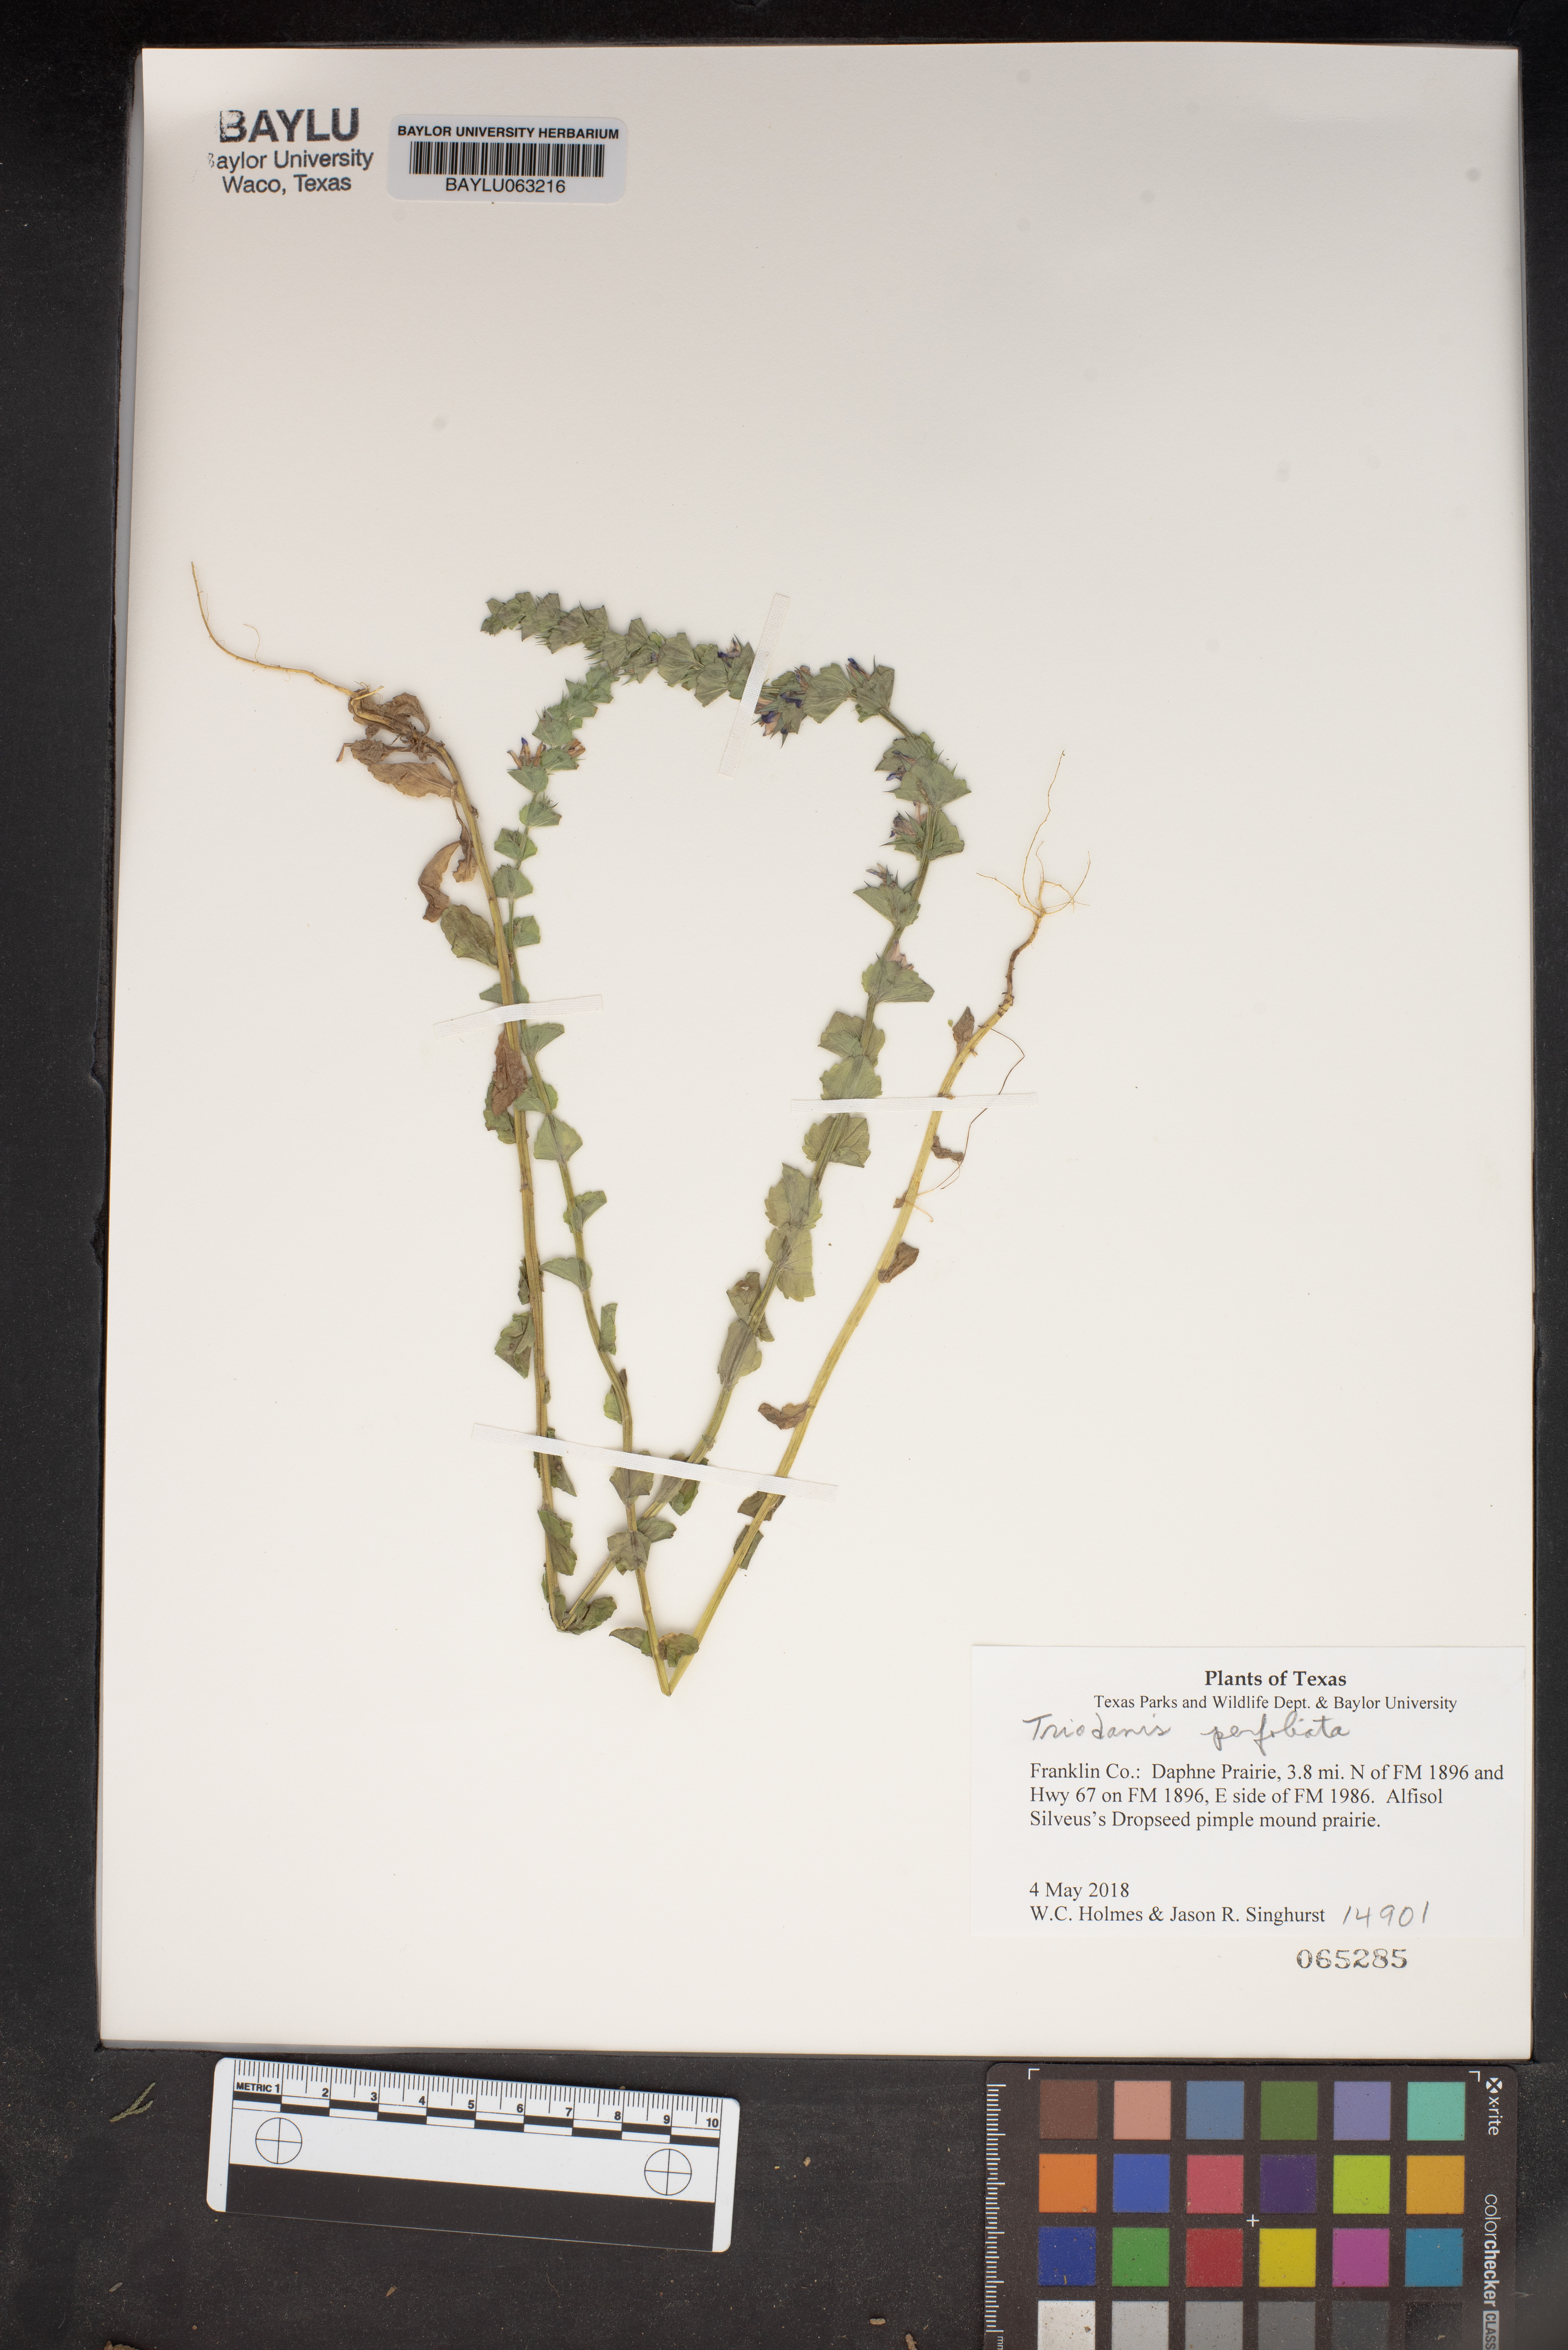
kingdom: Plantae
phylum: Tracheophyta
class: Magnoliopsida
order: Asterales
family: Campanulaceae
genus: Triodanis
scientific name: Triodanis perfoliata
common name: Clasping venus' looking-glass
